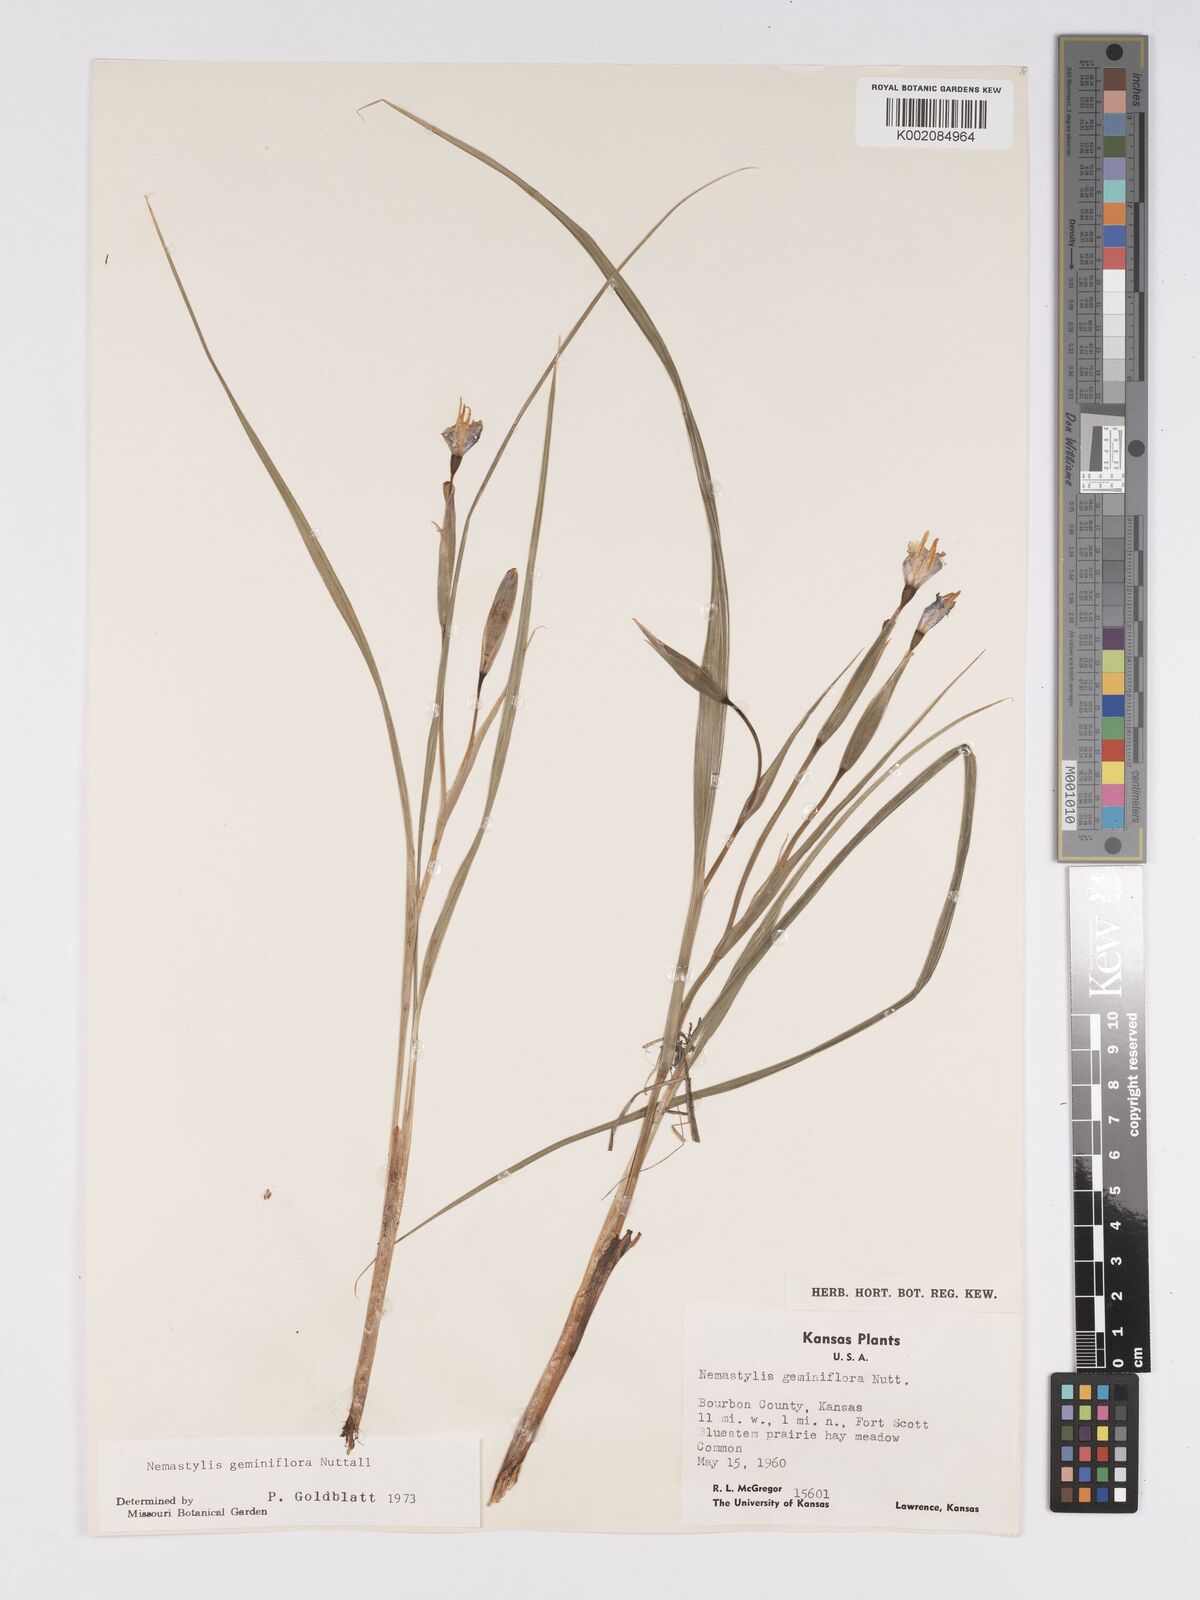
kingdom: Plantae
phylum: Tracheophyta
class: Liliopsida
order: Asparagales
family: Iridaceae
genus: Nemastylis
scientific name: Nemastylis geminiflora
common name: Prairie celestial
